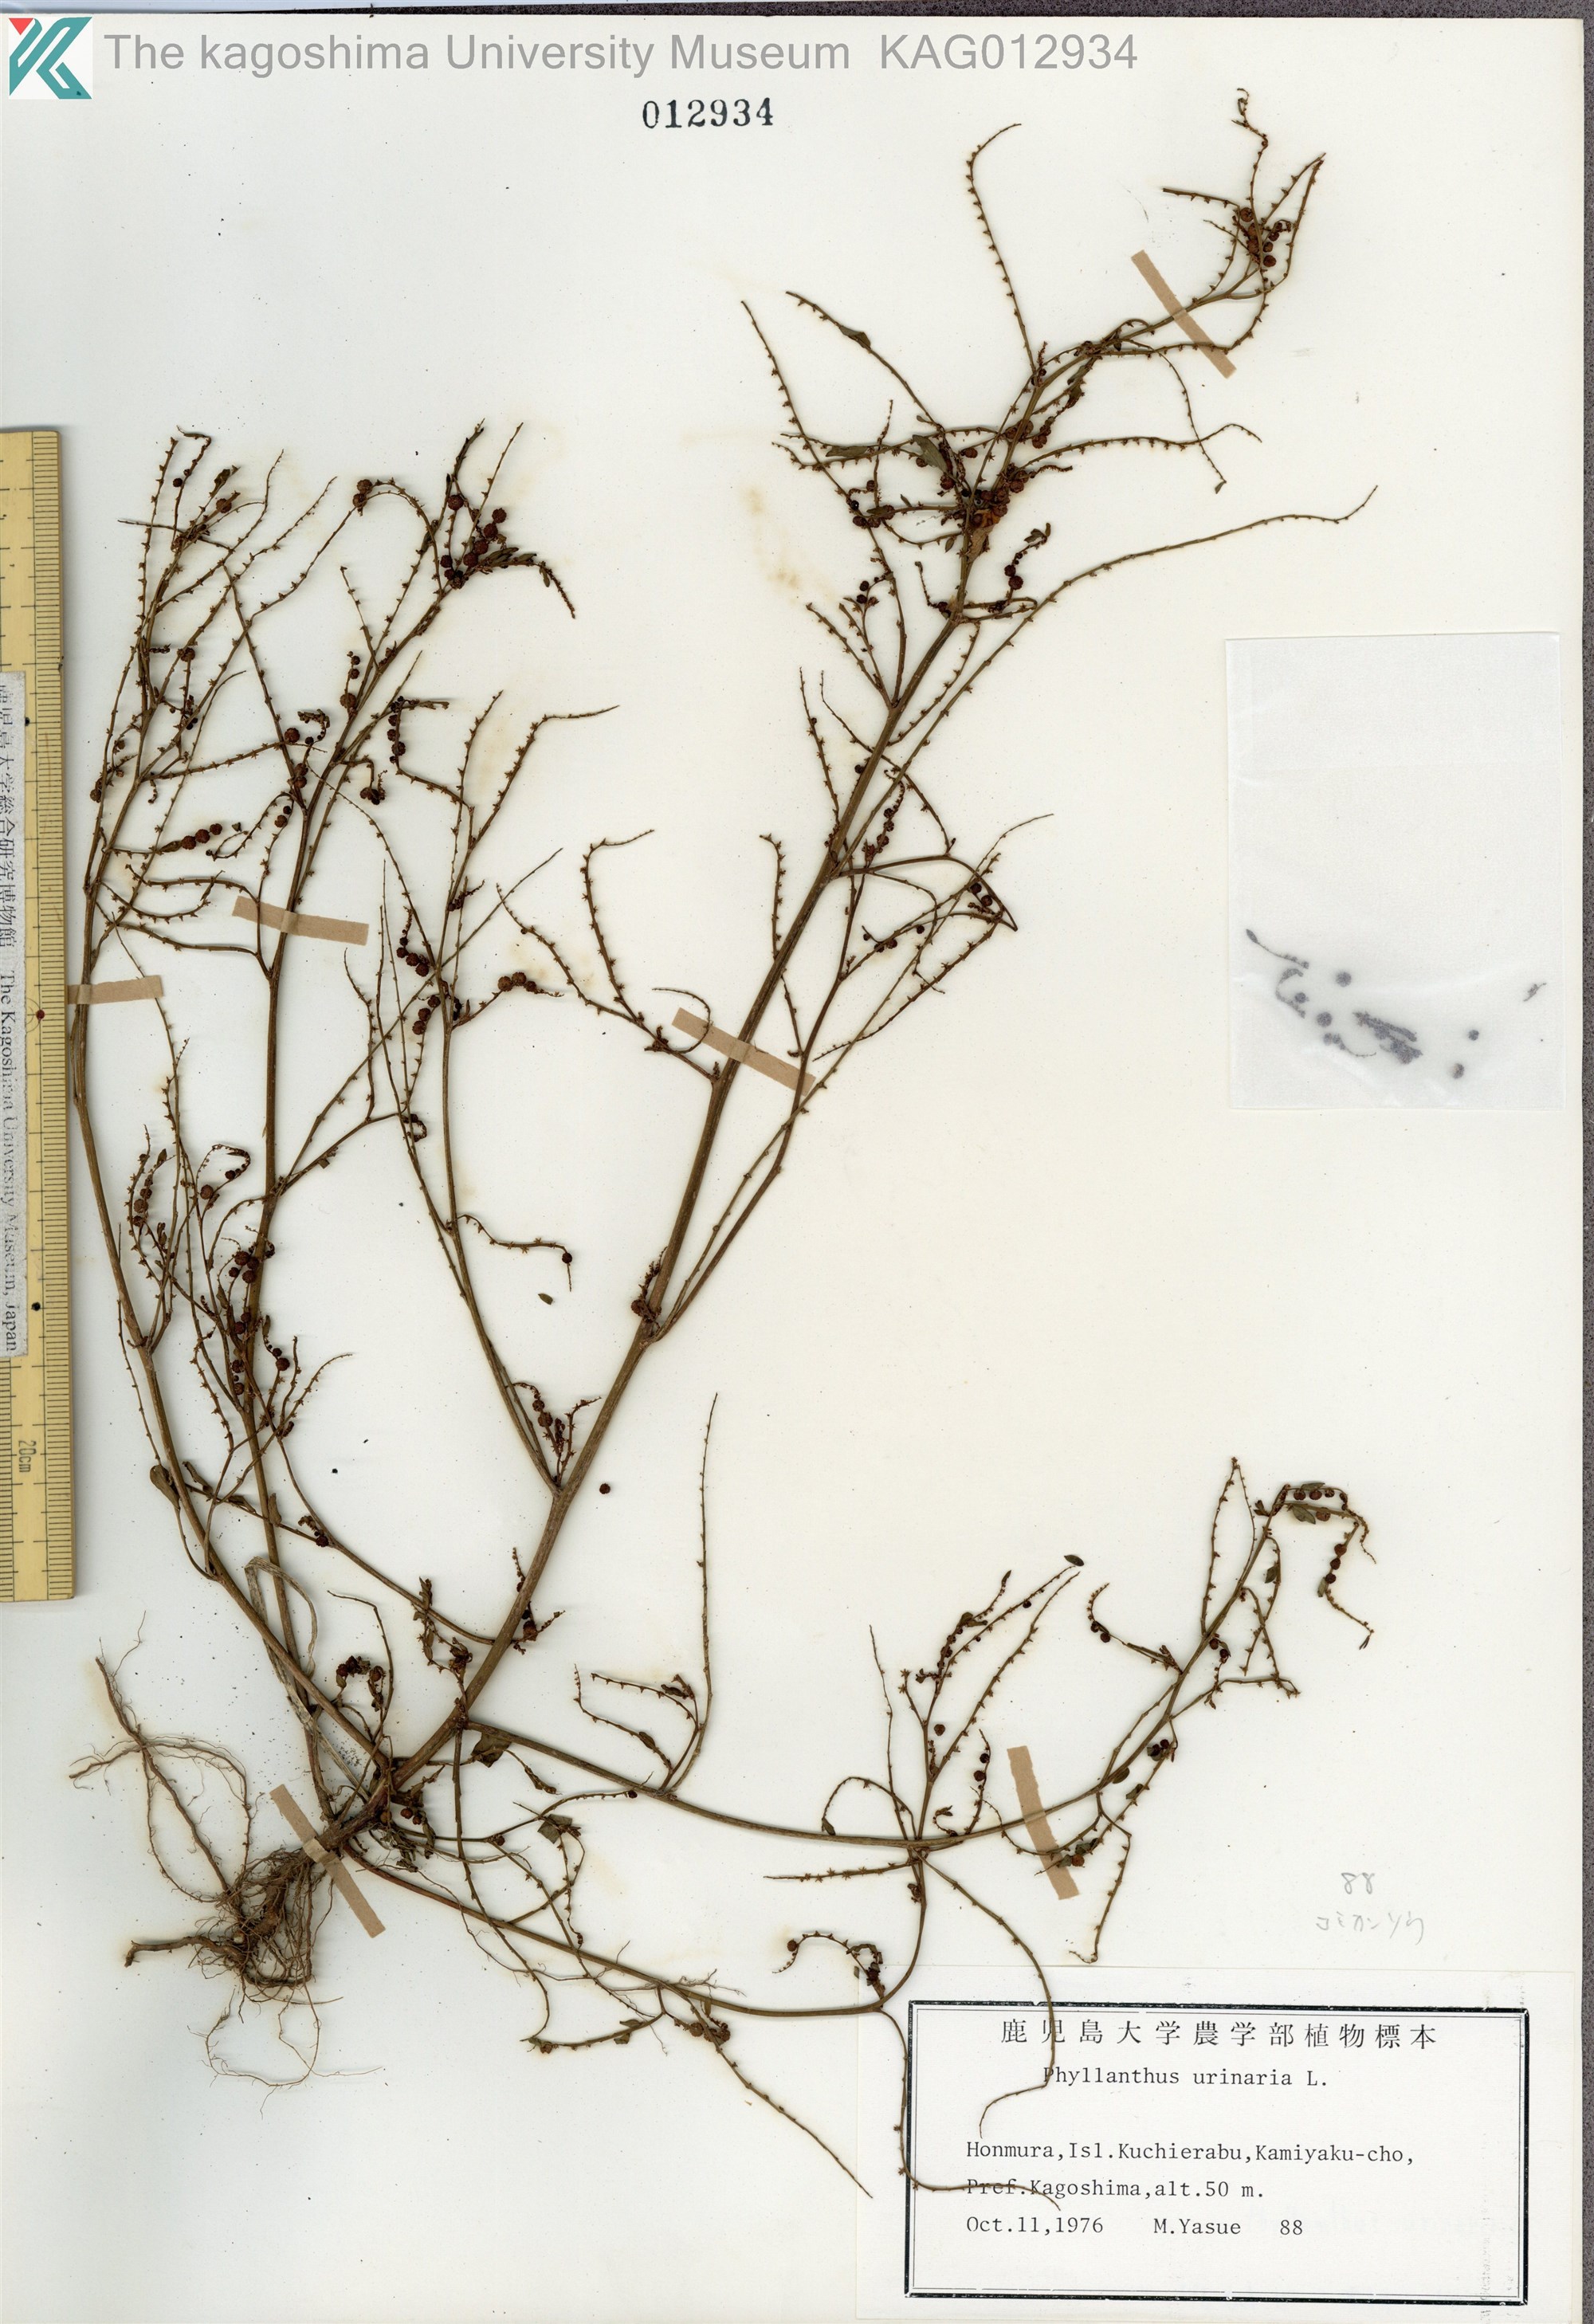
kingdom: Plantae
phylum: Tracheophyta
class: Magnoliopsida
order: Malpighiales
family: Phyllanthaceae
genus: Phyllanthus
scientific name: Phyllanthus urinaria
